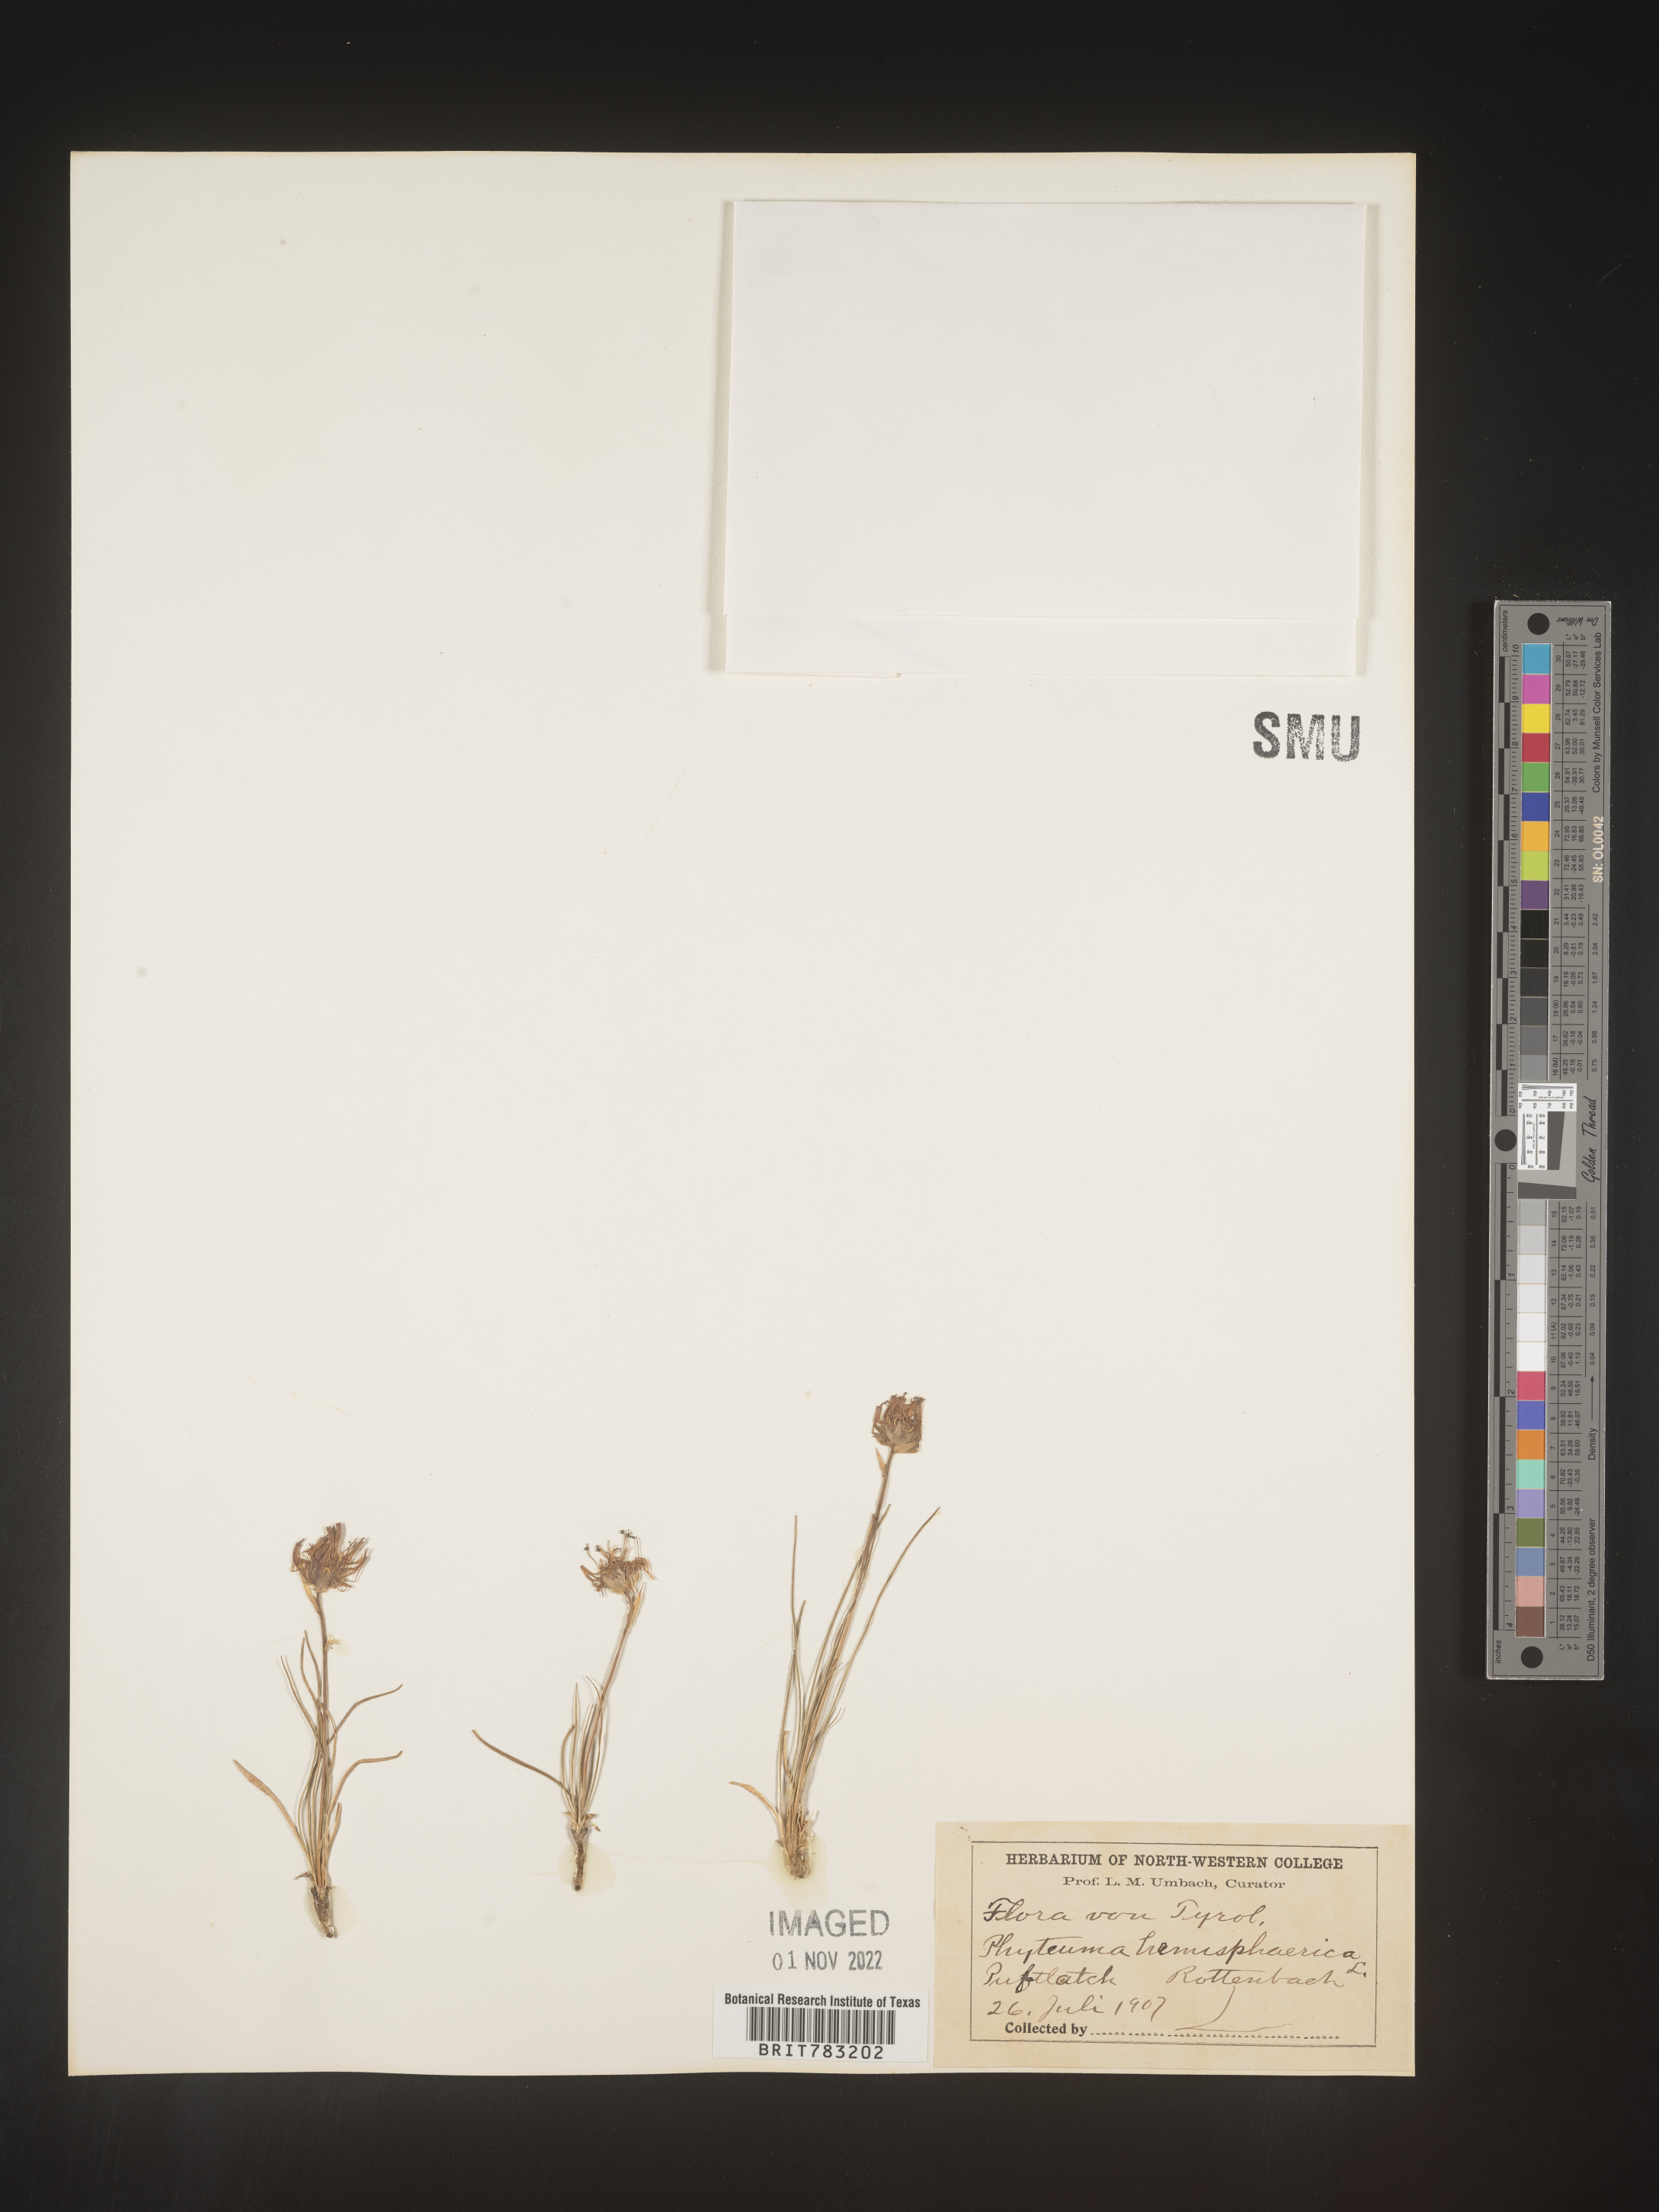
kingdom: Plantae
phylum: Tracheophyta
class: Magnoliopsida
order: Asterales
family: Campanulaceae
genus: Phyteuma
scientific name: Phyteuma
